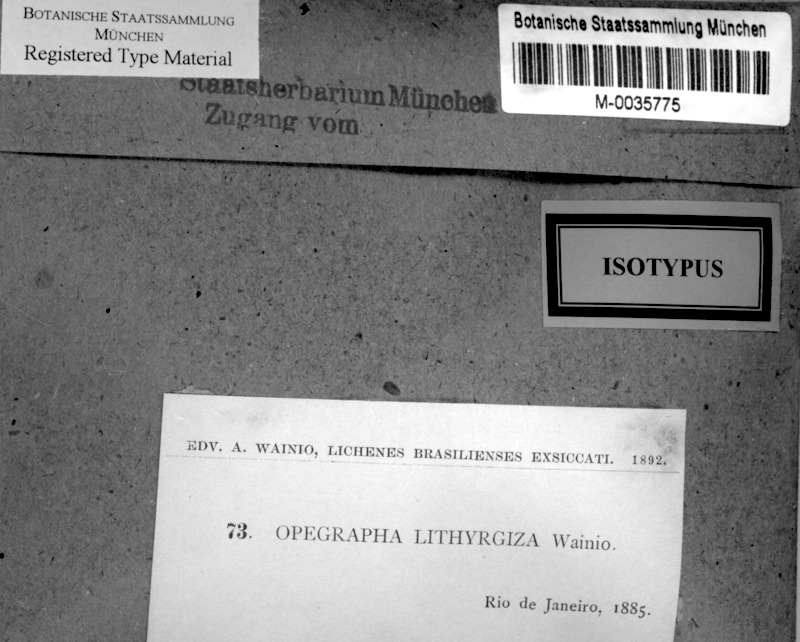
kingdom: Fungi
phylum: Ascomycota
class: Arthoniomycetes
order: Arthoniales
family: Opegraphaceae
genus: Opegrapha
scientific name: Opegrapha
